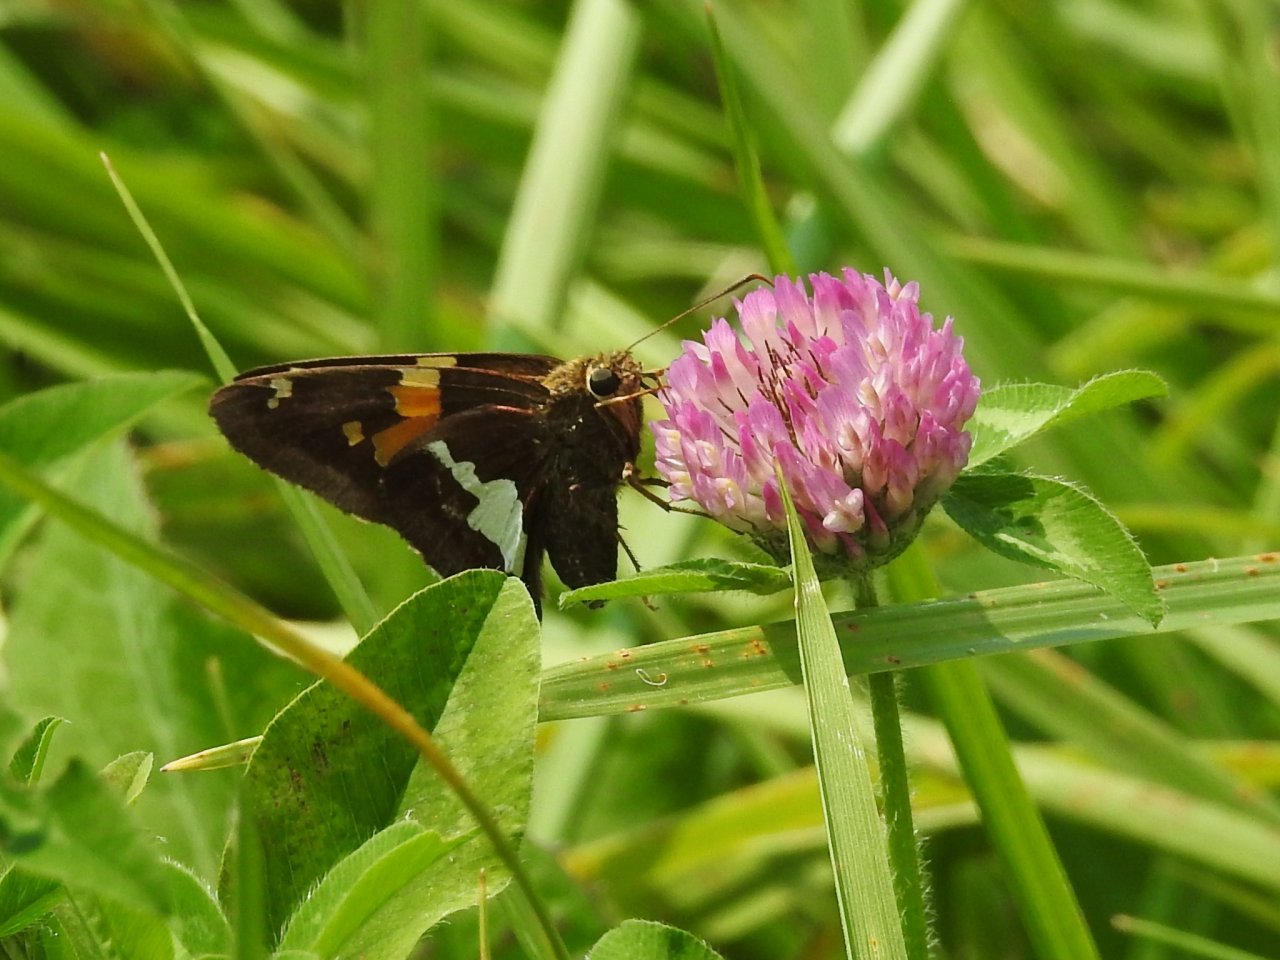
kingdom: Animalia
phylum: Arthropoda
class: Insecta
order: Lepidoptera
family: Hesperiidae
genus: Epargyreus
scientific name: Epargyreus clarus
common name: Silver-spotted Skipper
